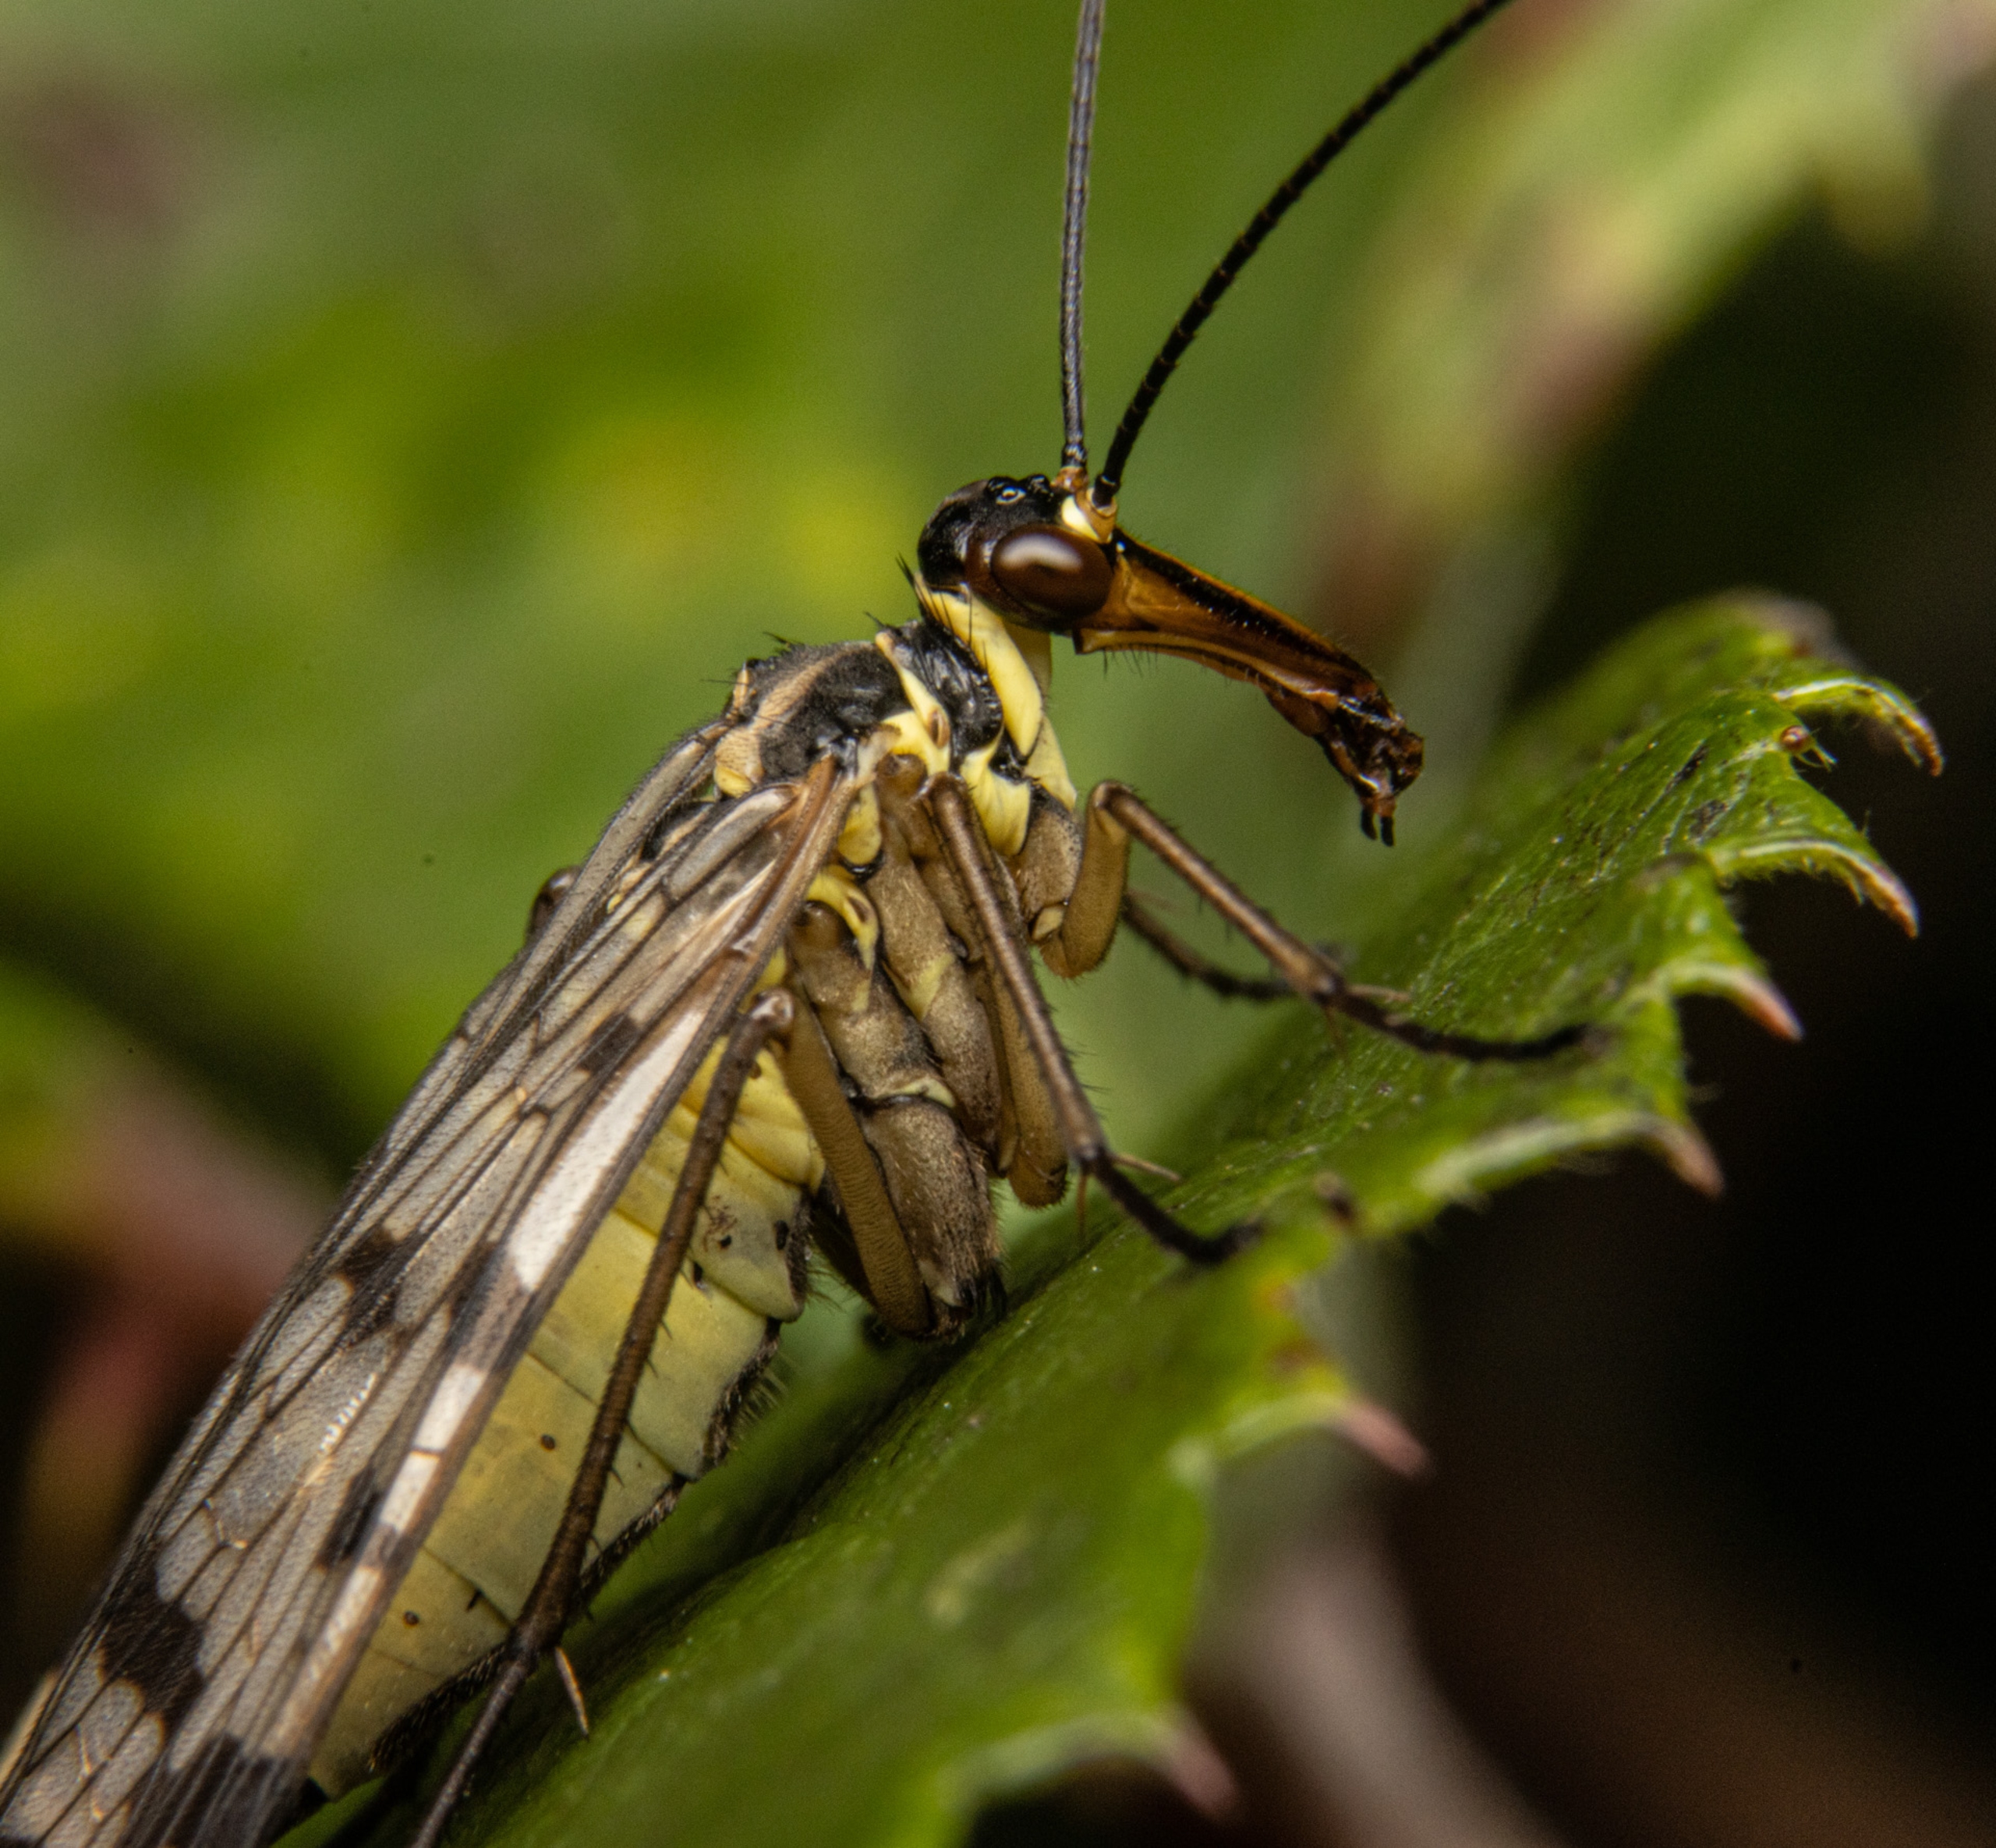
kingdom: Animalia
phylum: Arthropoda
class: Insecta
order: Mecoptera
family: Panorpidae
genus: Panorpa
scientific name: Panorpa
